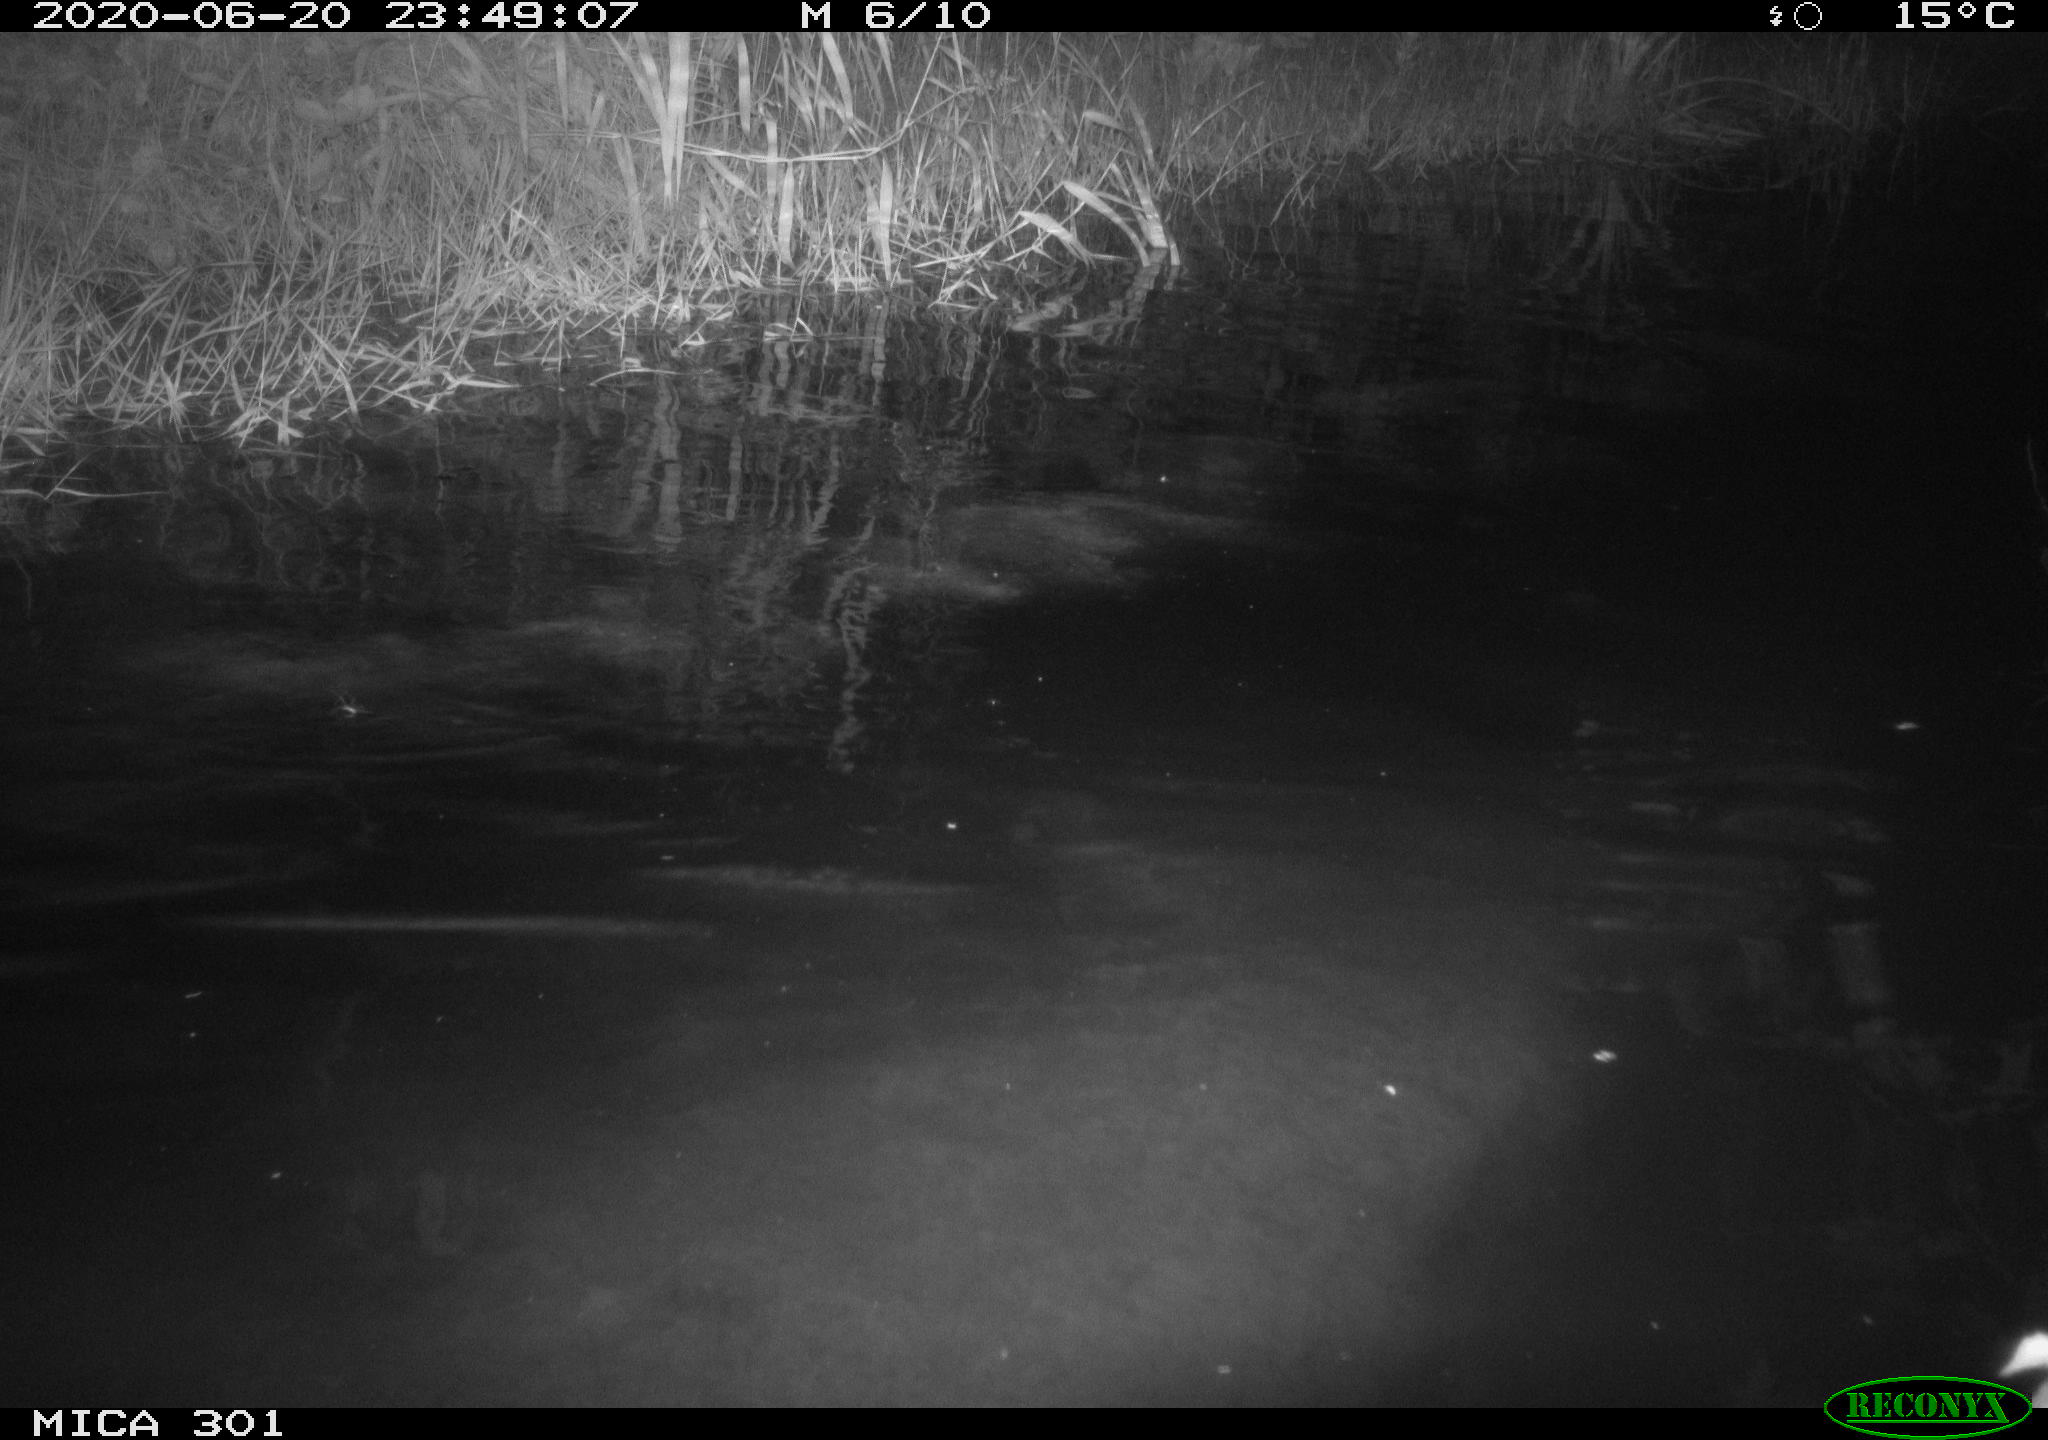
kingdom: Animalia
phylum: Chordata
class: Mammalia
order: Rodentia
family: Castoridae
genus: Castor
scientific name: Castor fiber
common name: Eurasian beaver
